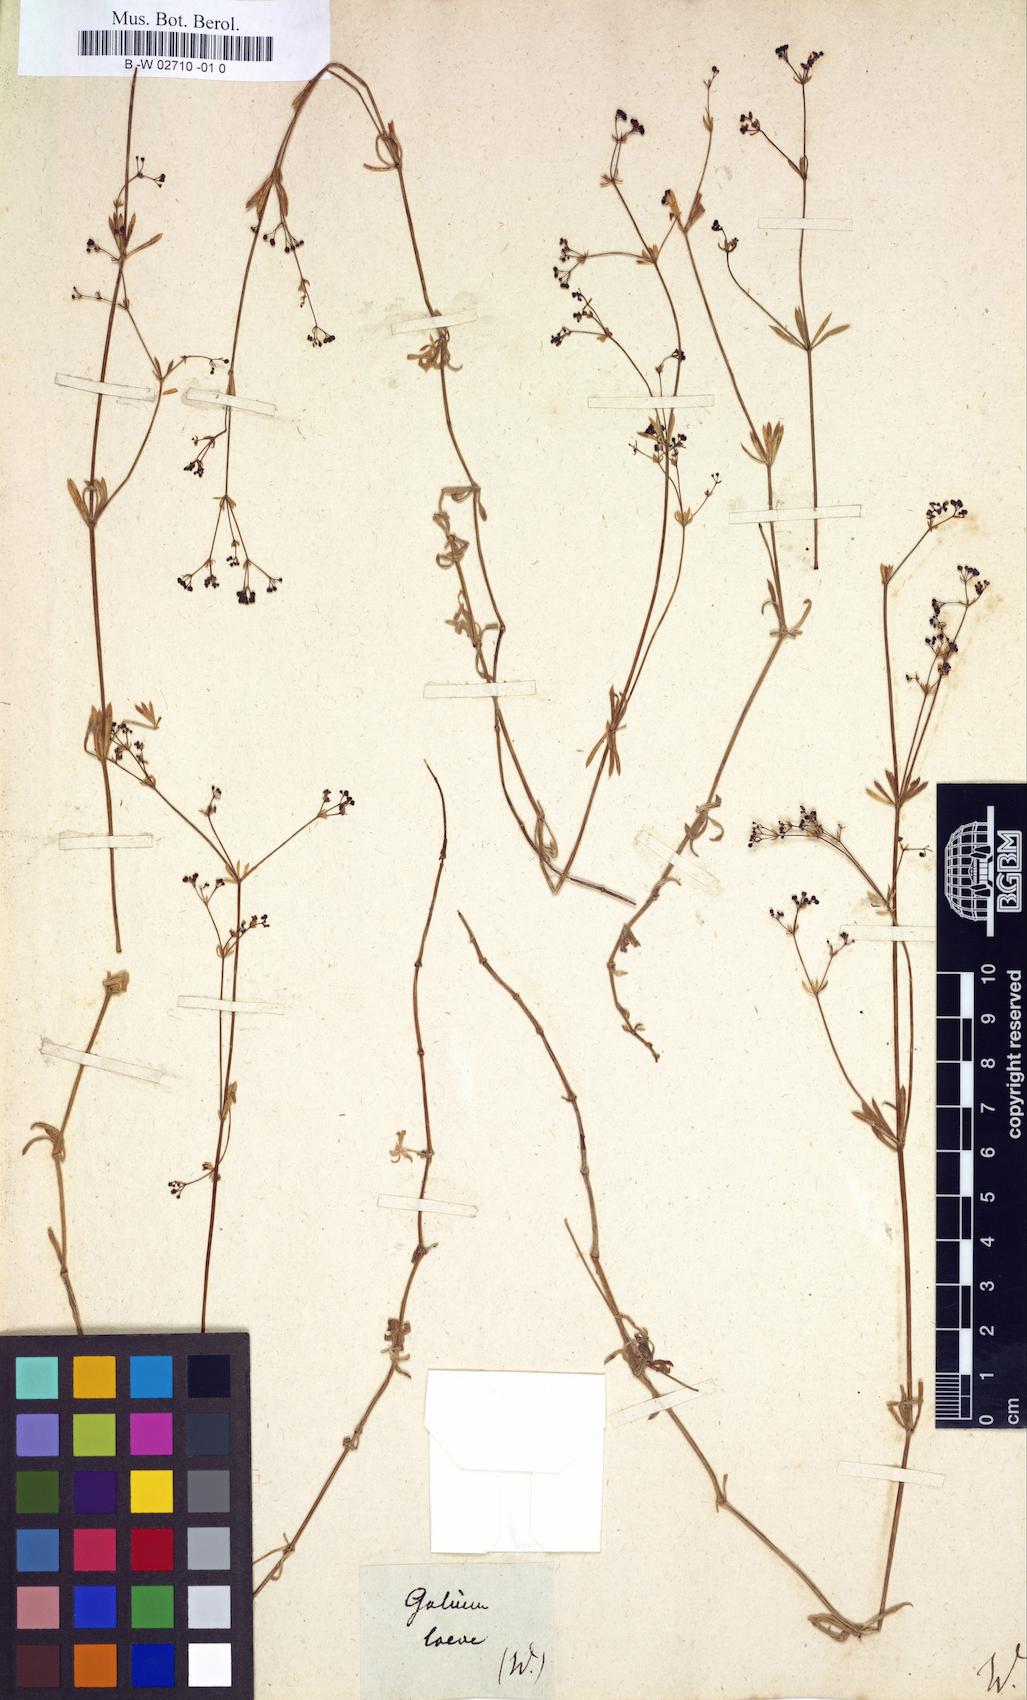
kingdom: Plantae
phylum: Tracheophyta
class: Magnoliopsida
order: Gentianales
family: Rubiaceae
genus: Galium
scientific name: Galium pumilum
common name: Slender bedstraw
